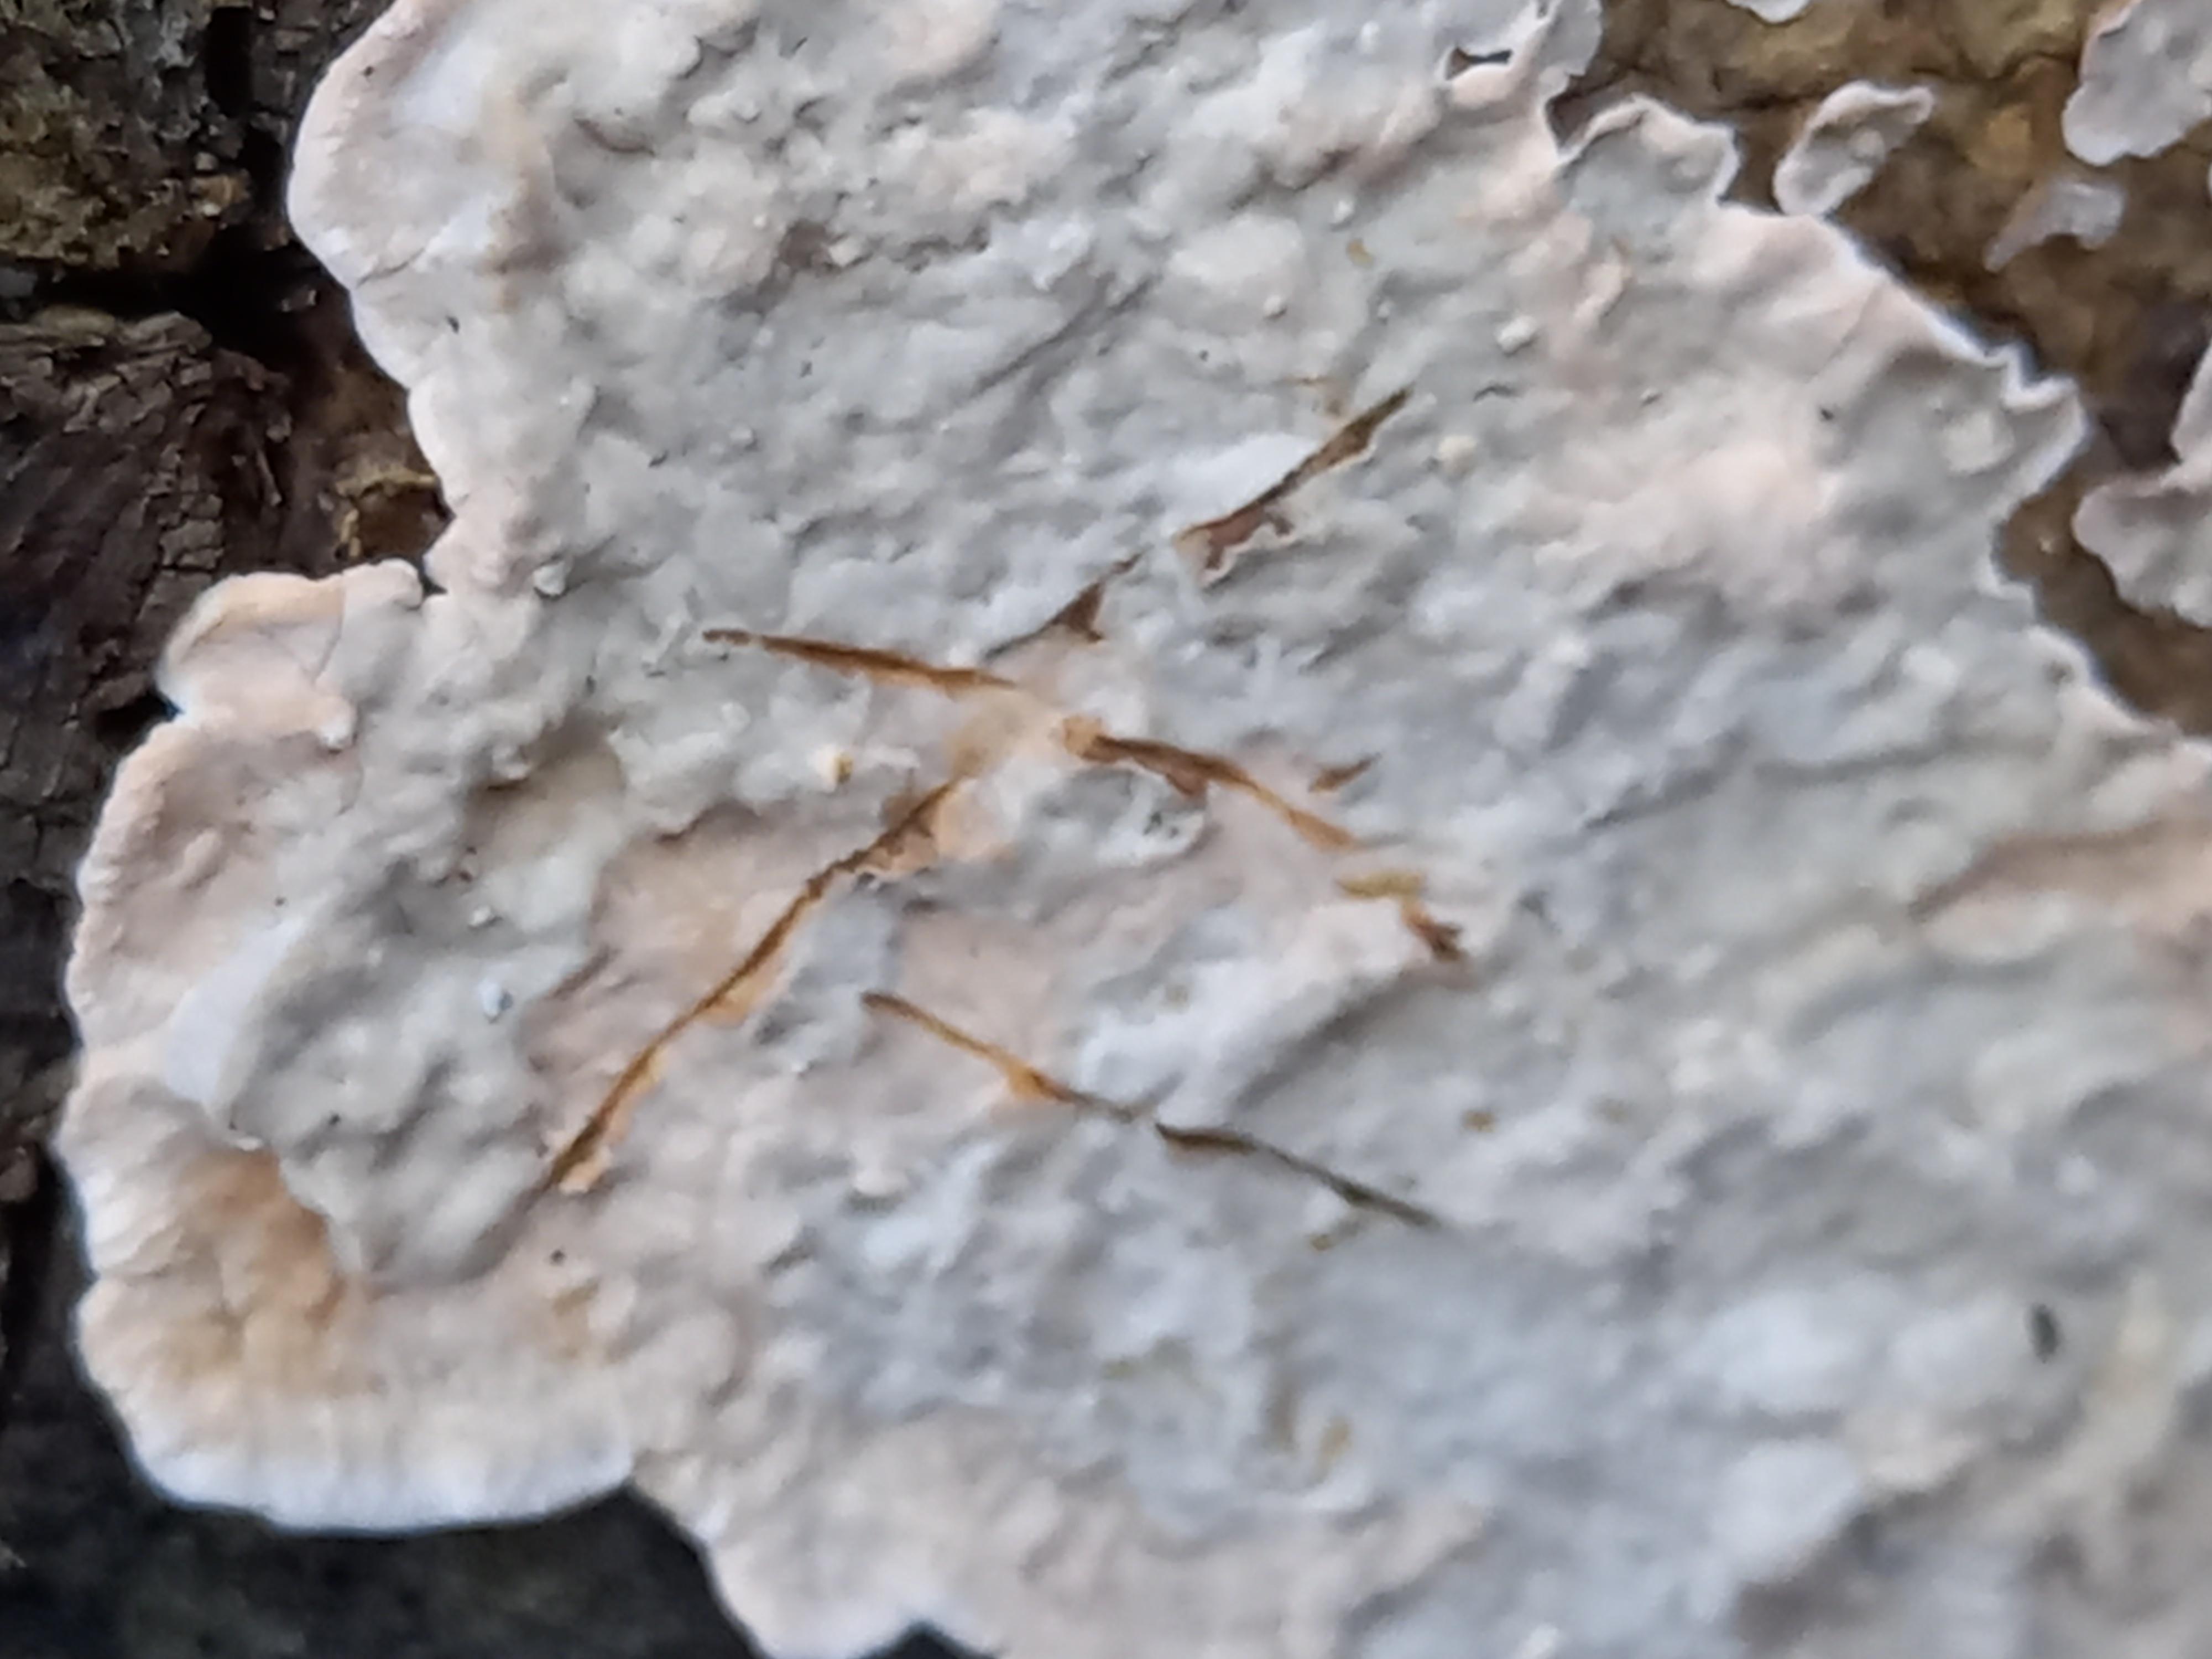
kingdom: Fungi
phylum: Basidiomycota
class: Agaricomycetes
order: Russulales
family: Stereaceae
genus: Stereum
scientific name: Stereum rugosum
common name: rynket lædersvamp
